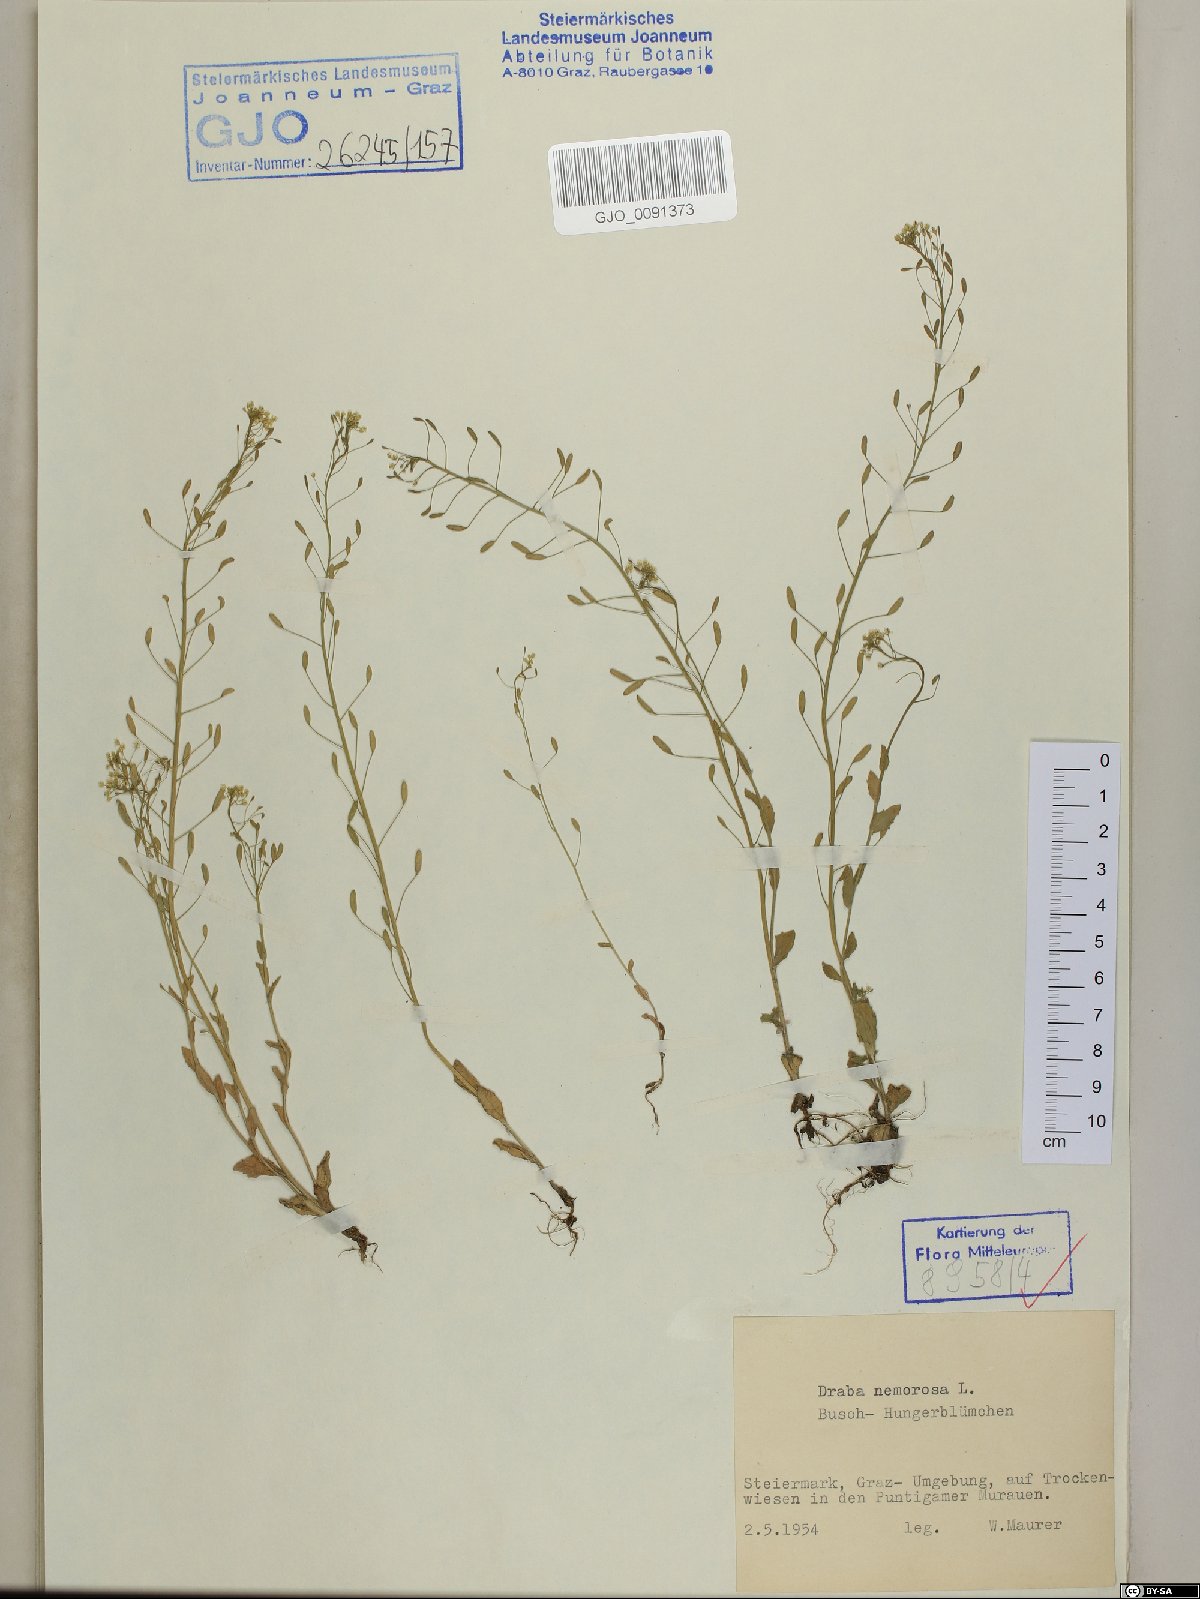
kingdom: Plantae
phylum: Tracheophyta
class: Magnoliopsida
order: Brassicales
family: Brassicaceae
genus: Draba
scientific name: Draba nemorosa
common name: Wood whitlow-grass
